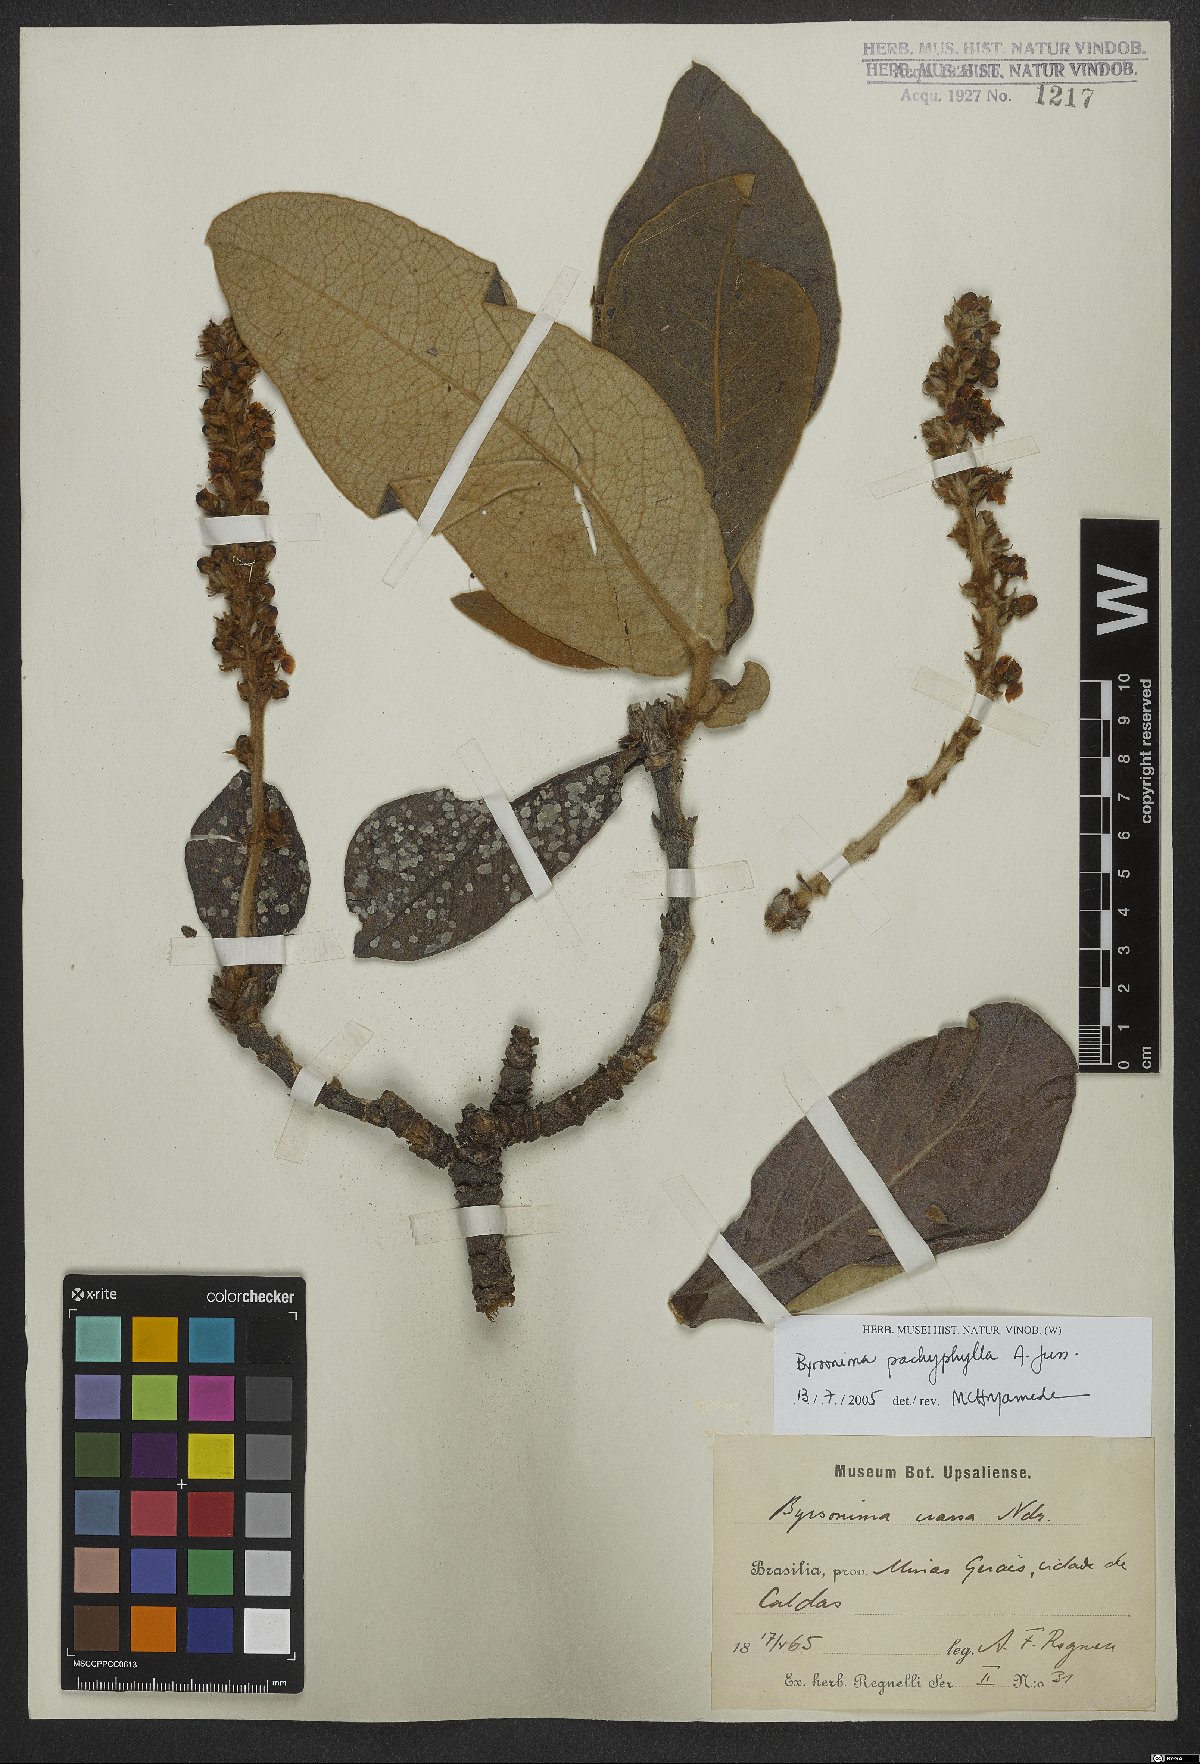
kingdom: Plantae
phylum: Tracheophyta
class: Magnoliopsida
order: Malpighiales
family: Malpighiaceae
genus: Byrsonima
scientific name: Byrsonima pachyphylla
